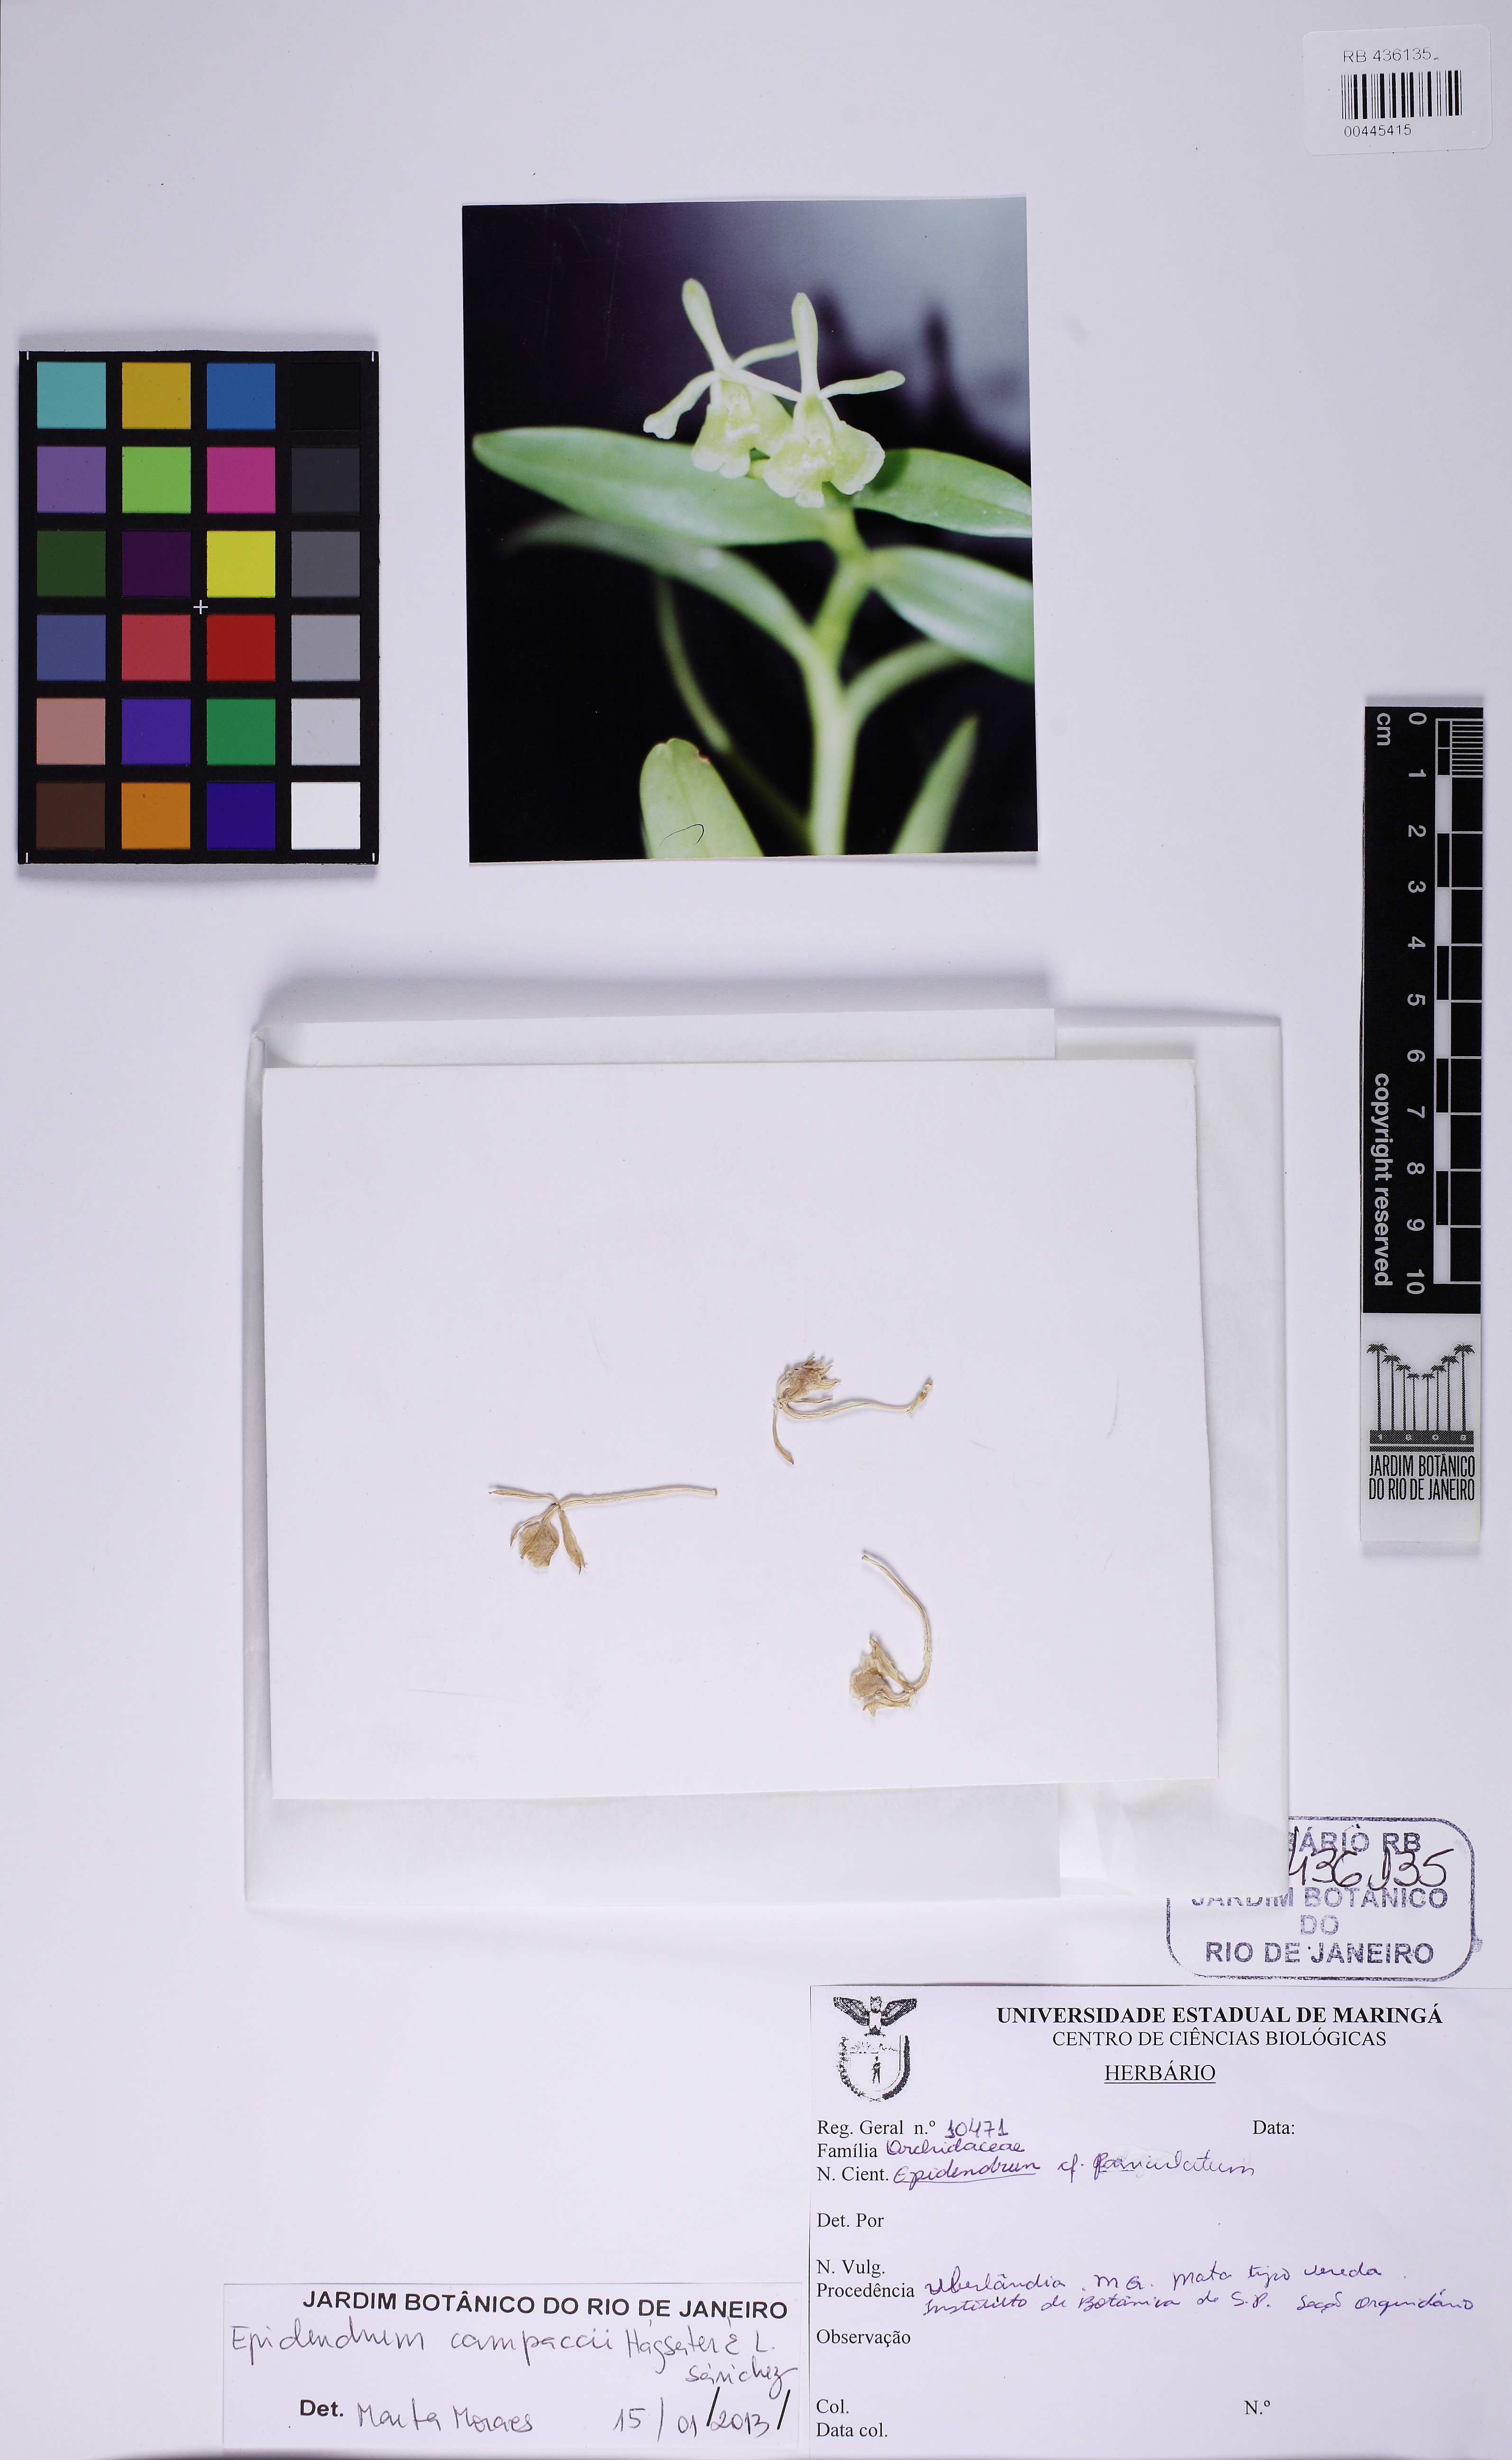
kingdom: Plantae
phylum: Tracheophyta
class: Liliopsida
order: Asparagales
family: Orchidaceae
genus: Epidendrum
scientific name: Epidendrum pseudodifforme
